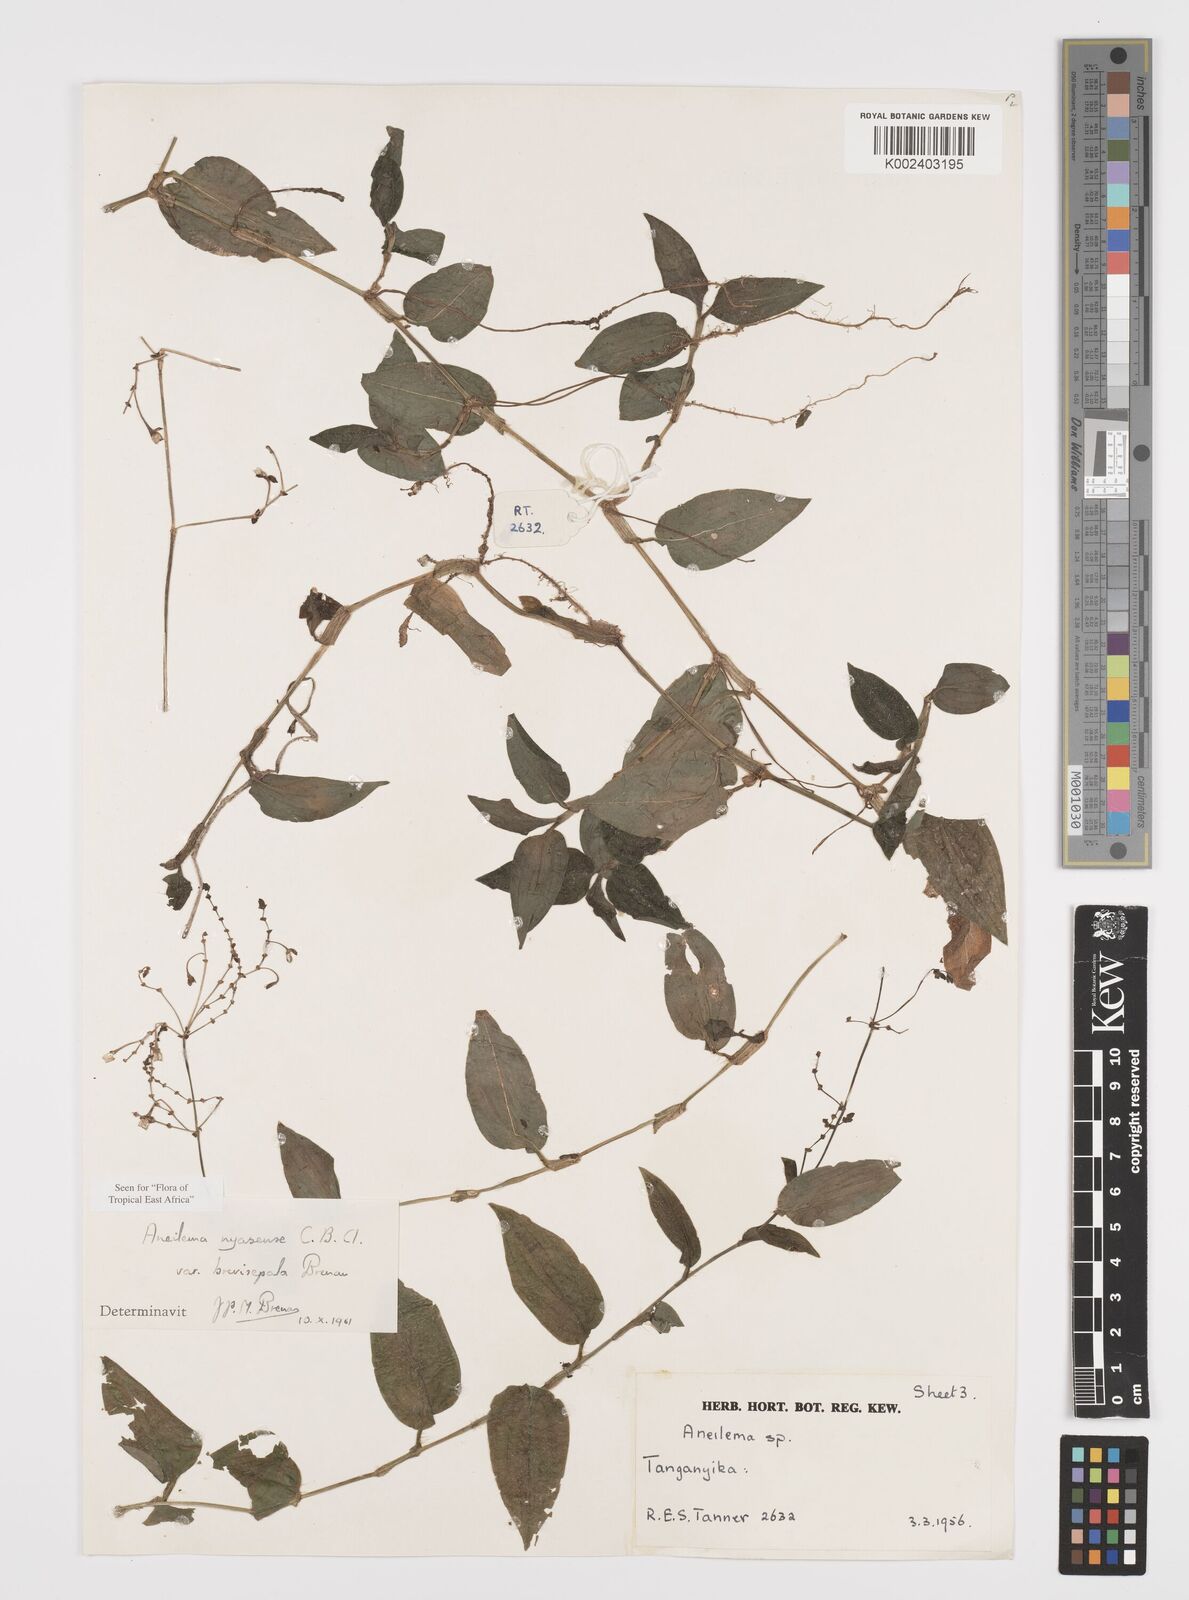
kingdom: Plantae
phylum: Tracheophyta
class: Liliopsida
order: Commelinales
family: Commelinaceae
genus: Aneilema
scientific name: Aneilema nyasense
